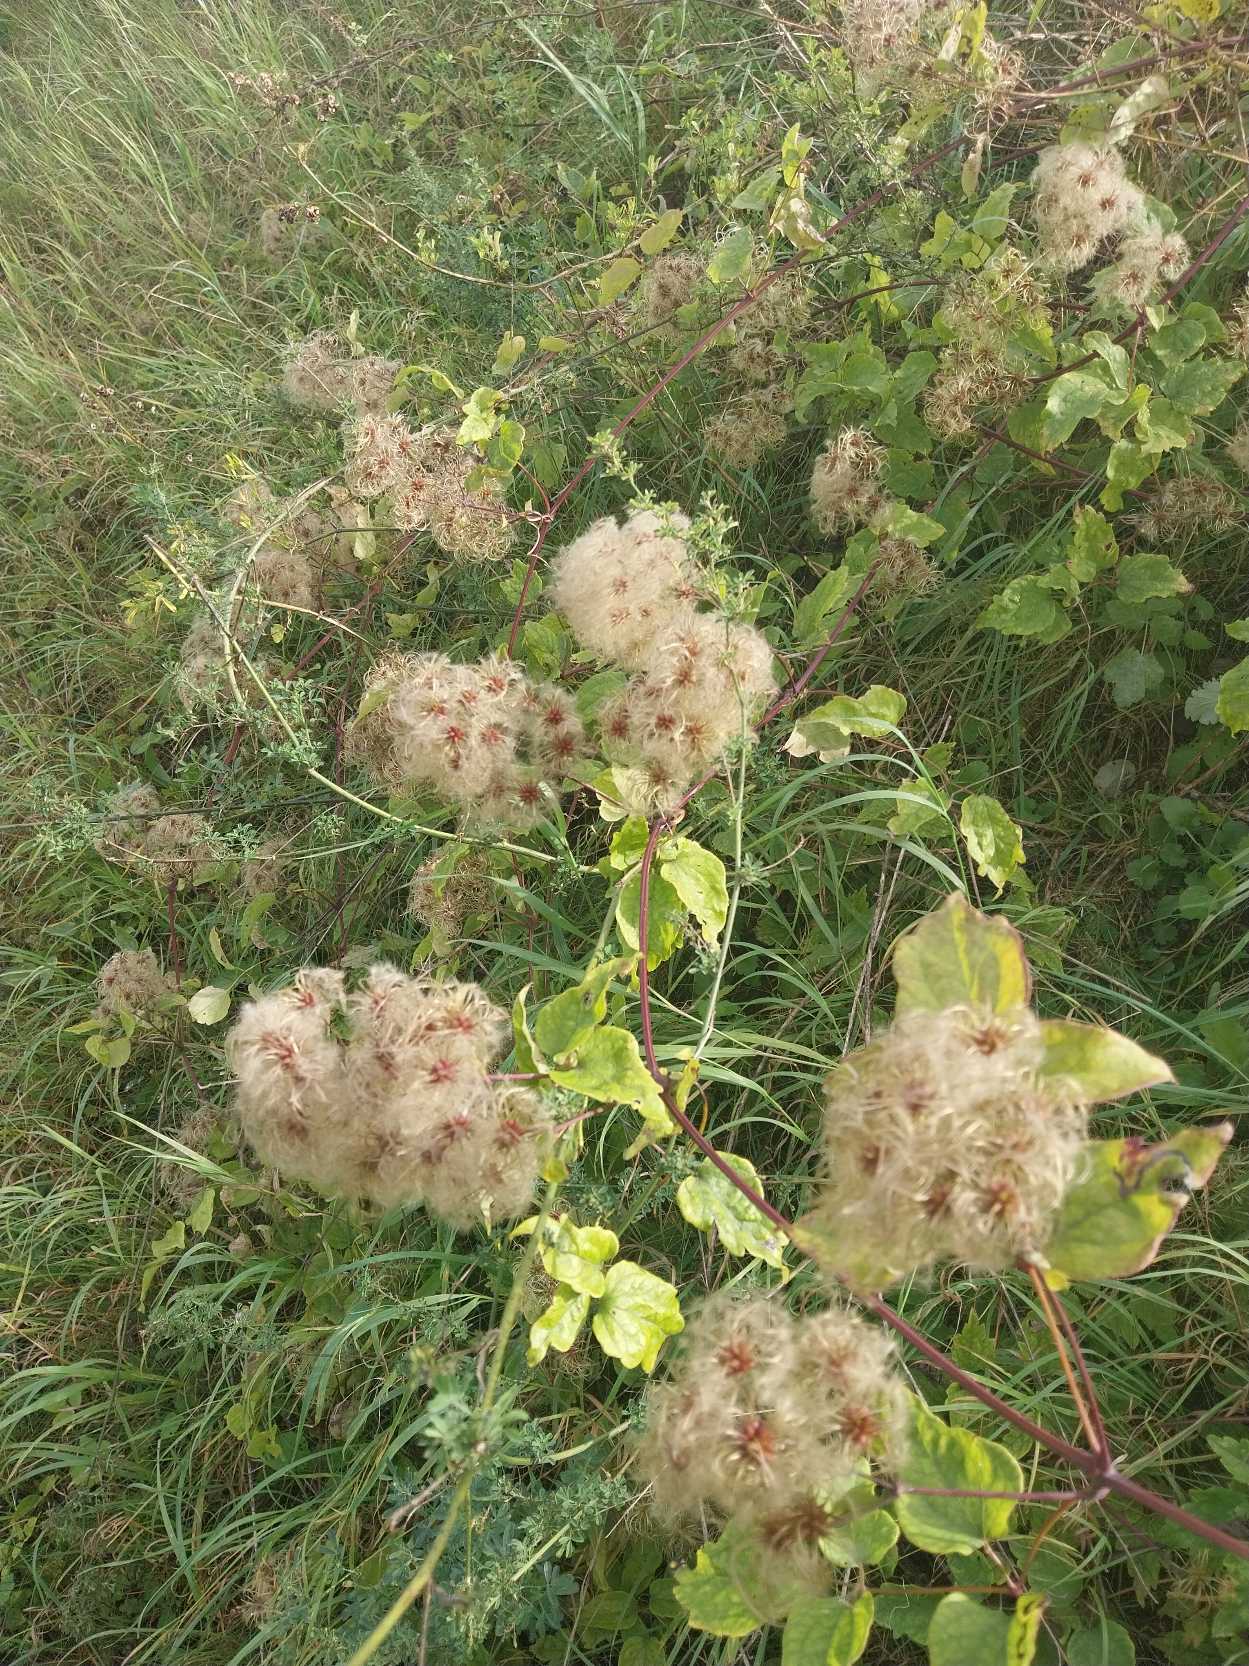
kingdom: Plantae
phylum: Tracheophyta
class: Magnoliopsida
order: Ranunculales
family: Ranunculaceae
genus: Clematis
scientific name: Clematis vitalba
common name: Skovranke
